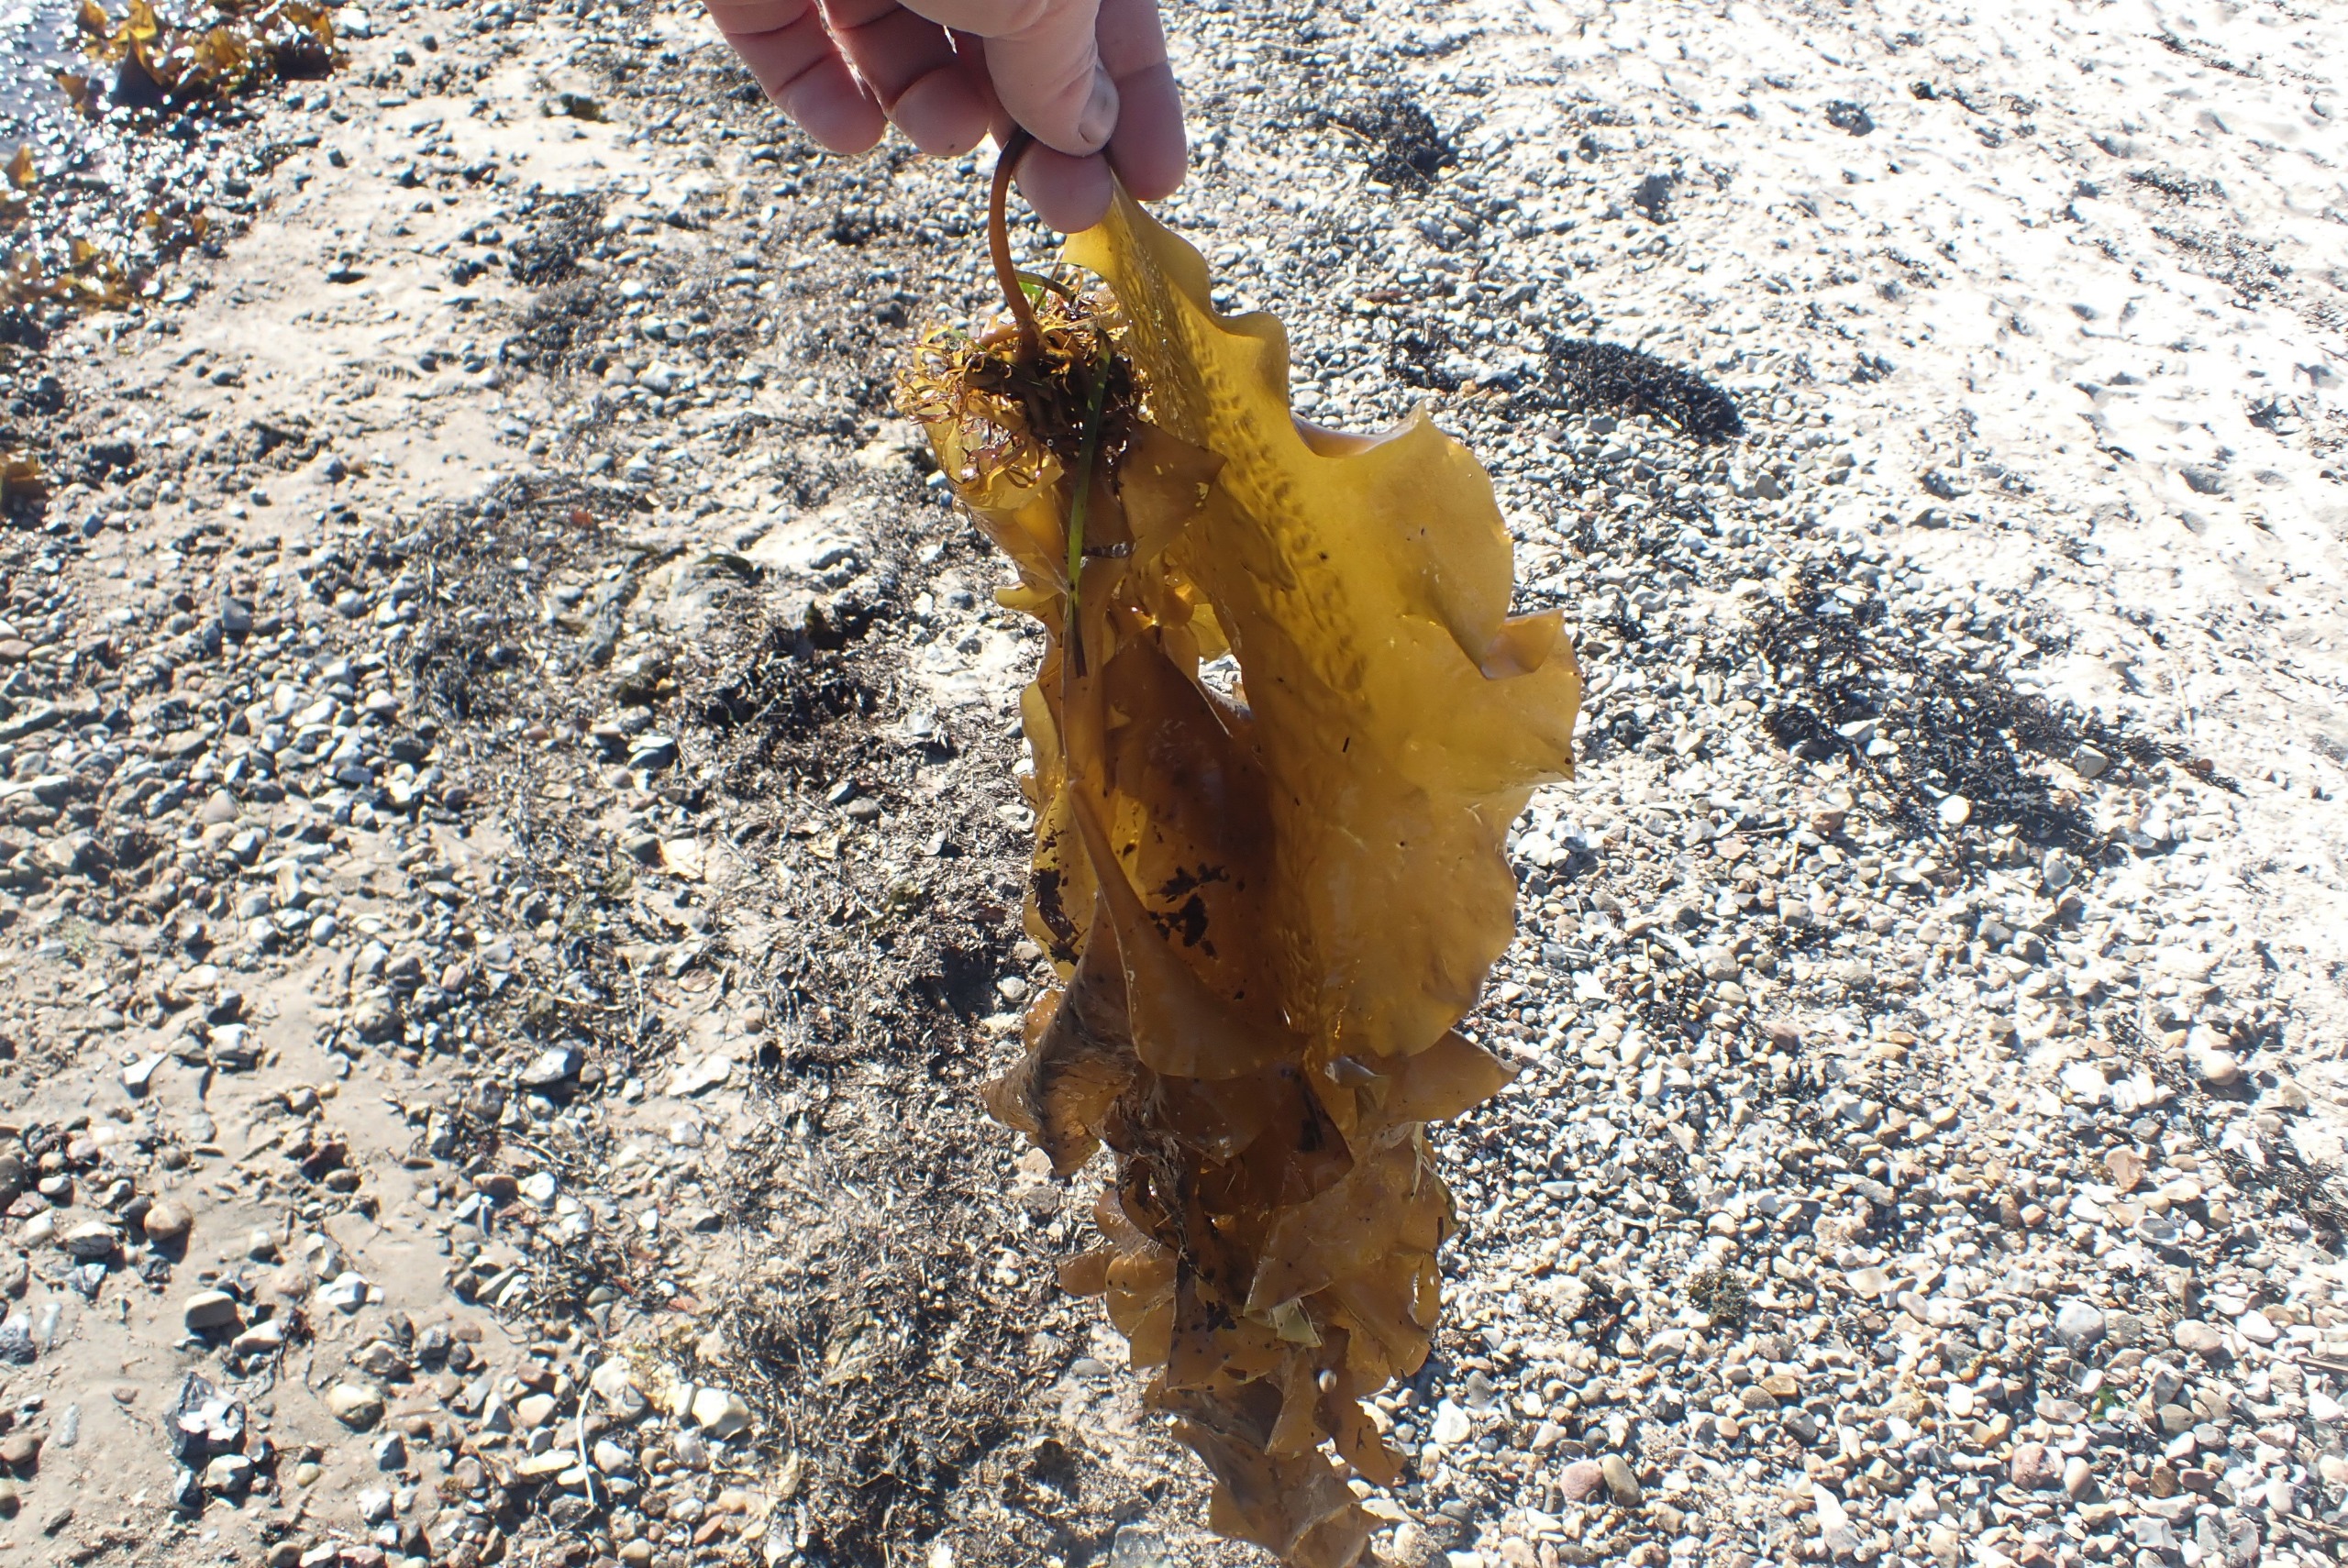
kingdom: Chromista
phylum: Ochrophyta
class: Phaeophyceae
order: Laminariales
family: Laminariaceae
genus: Saccharina
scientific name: Saccharina latissima
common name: Sukkertang
